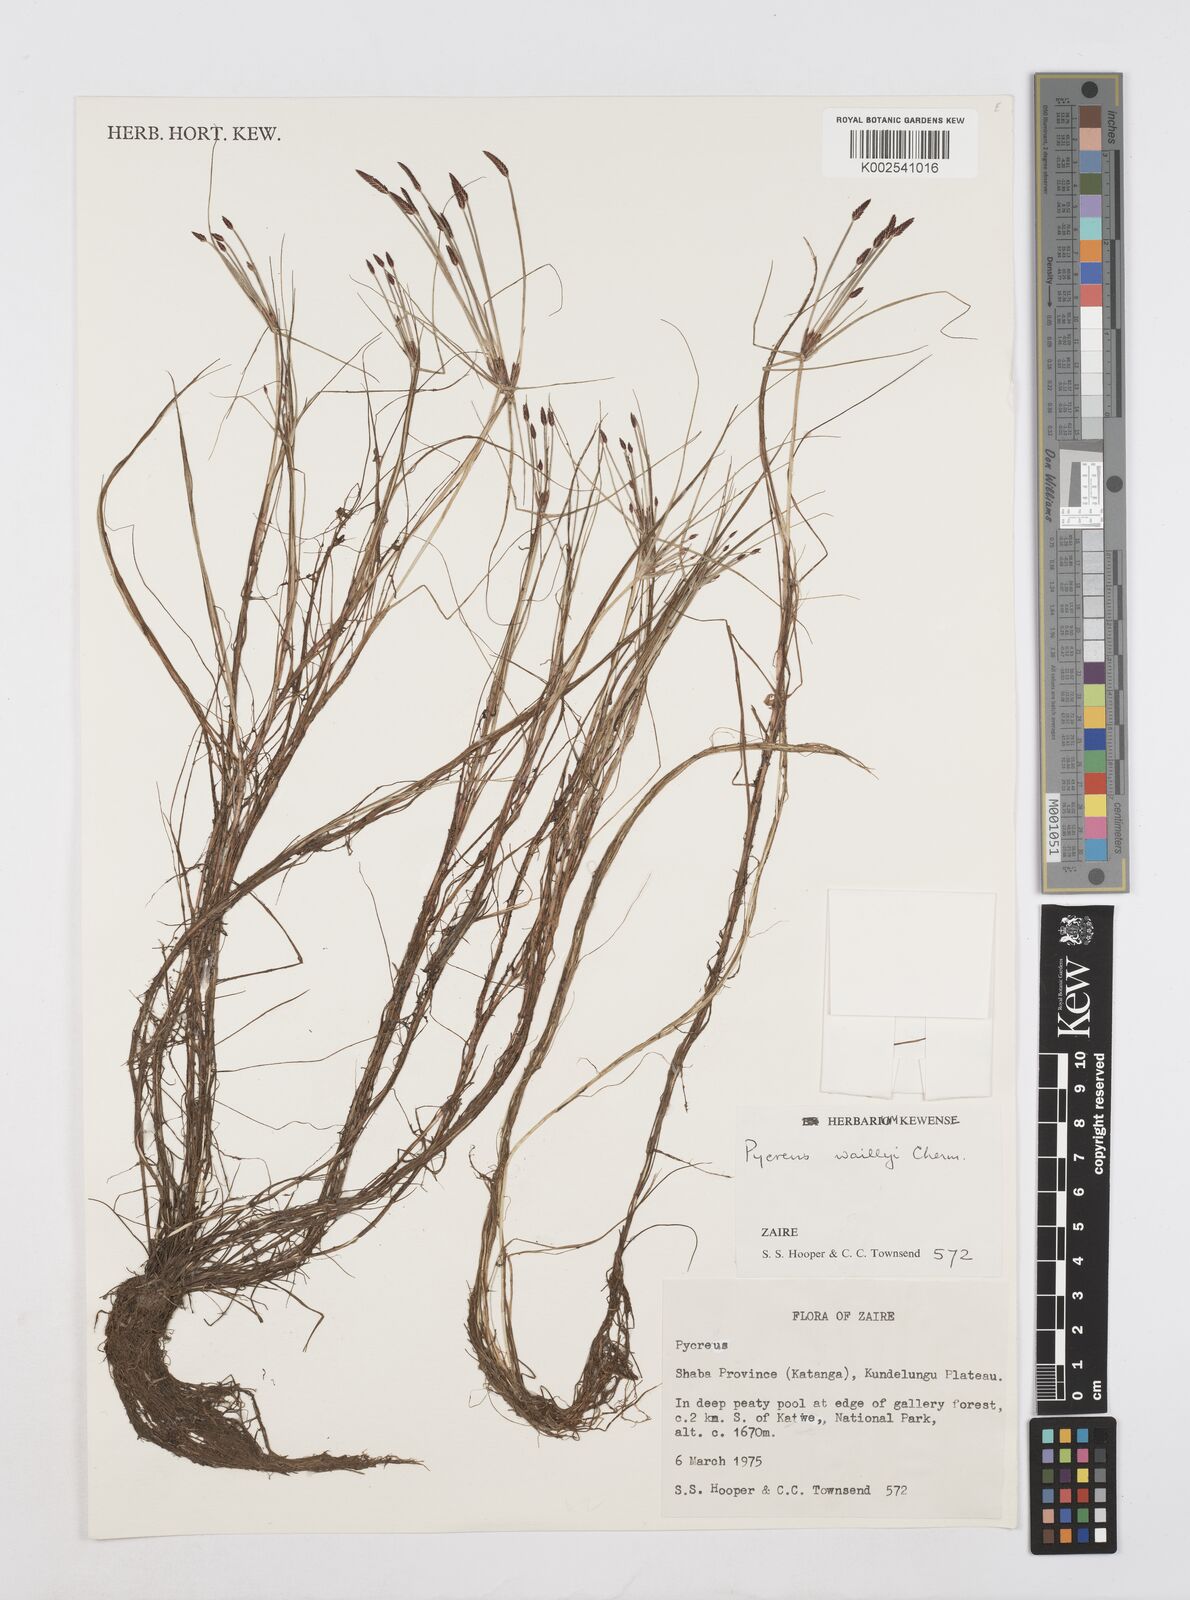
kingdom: Plantae
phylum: Tracheophyta
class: Liliopsida
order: Poales
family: Cyperaceae
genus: Cyperus
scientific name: Cyperus waillyi
